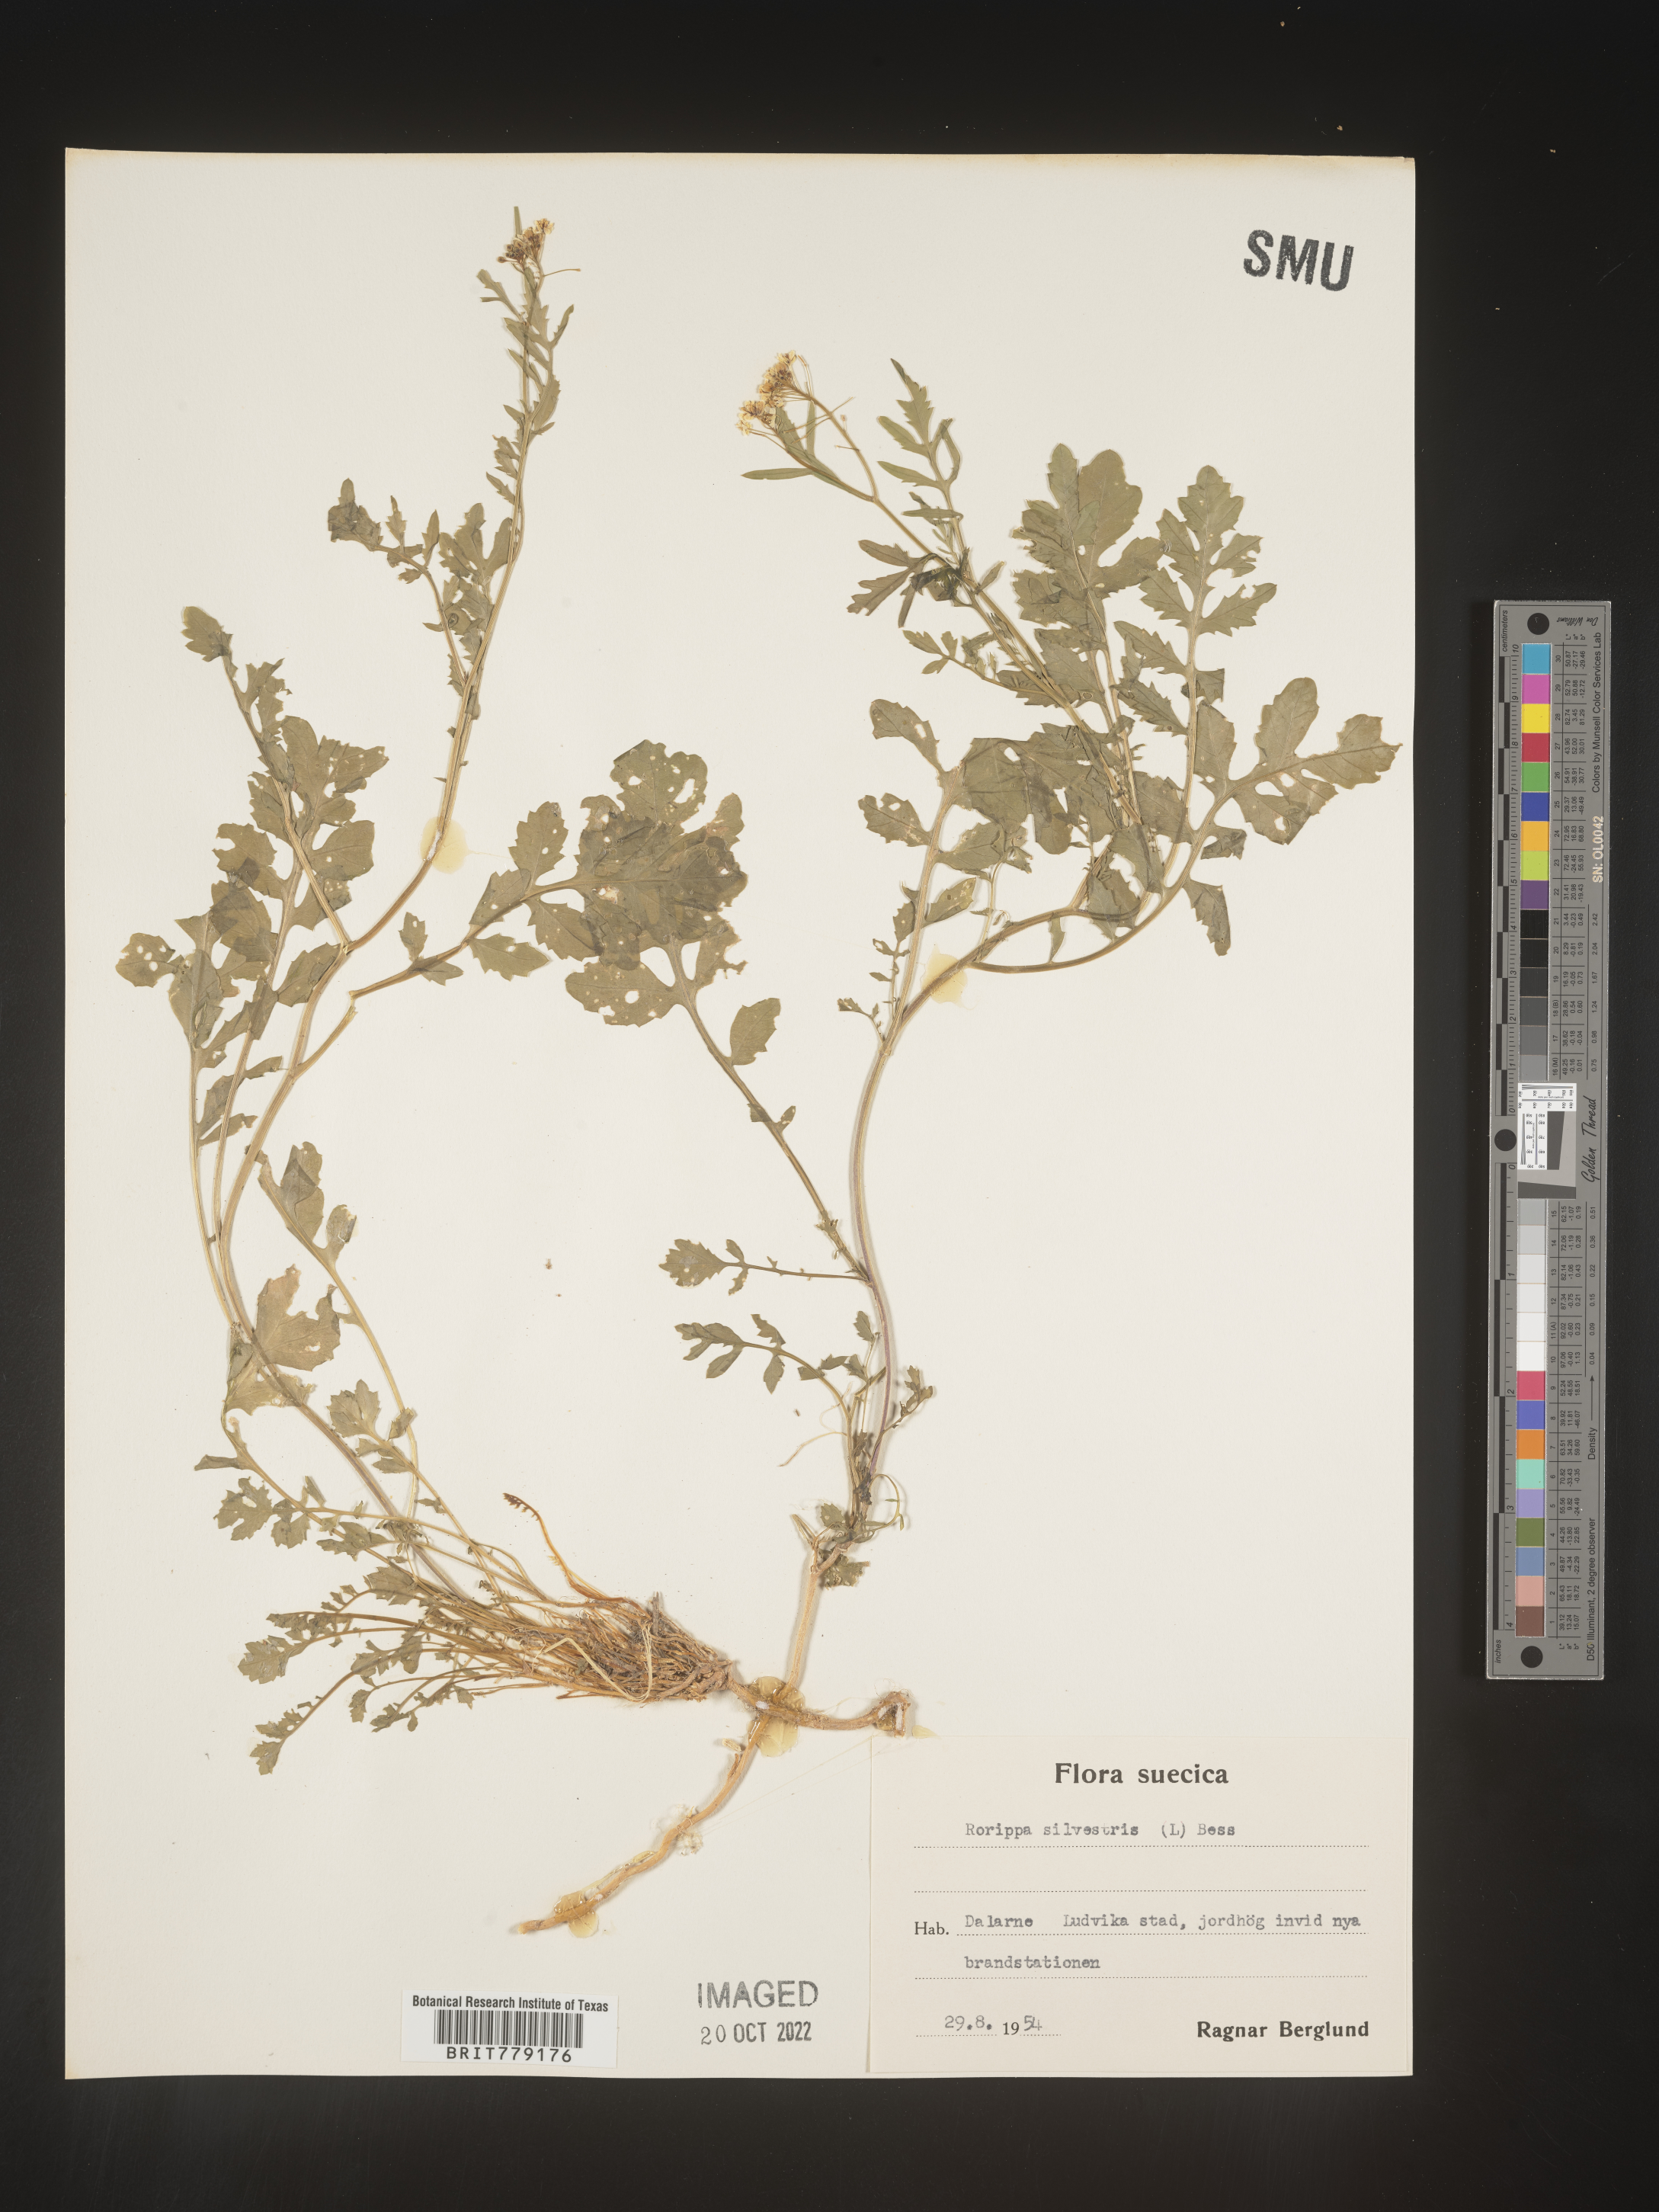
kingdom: Plantae
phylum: Tracheophyta
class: Magnoliopsida
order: Brassicales
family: Brassicaceae
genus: Rorippa
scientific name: Rorippa
